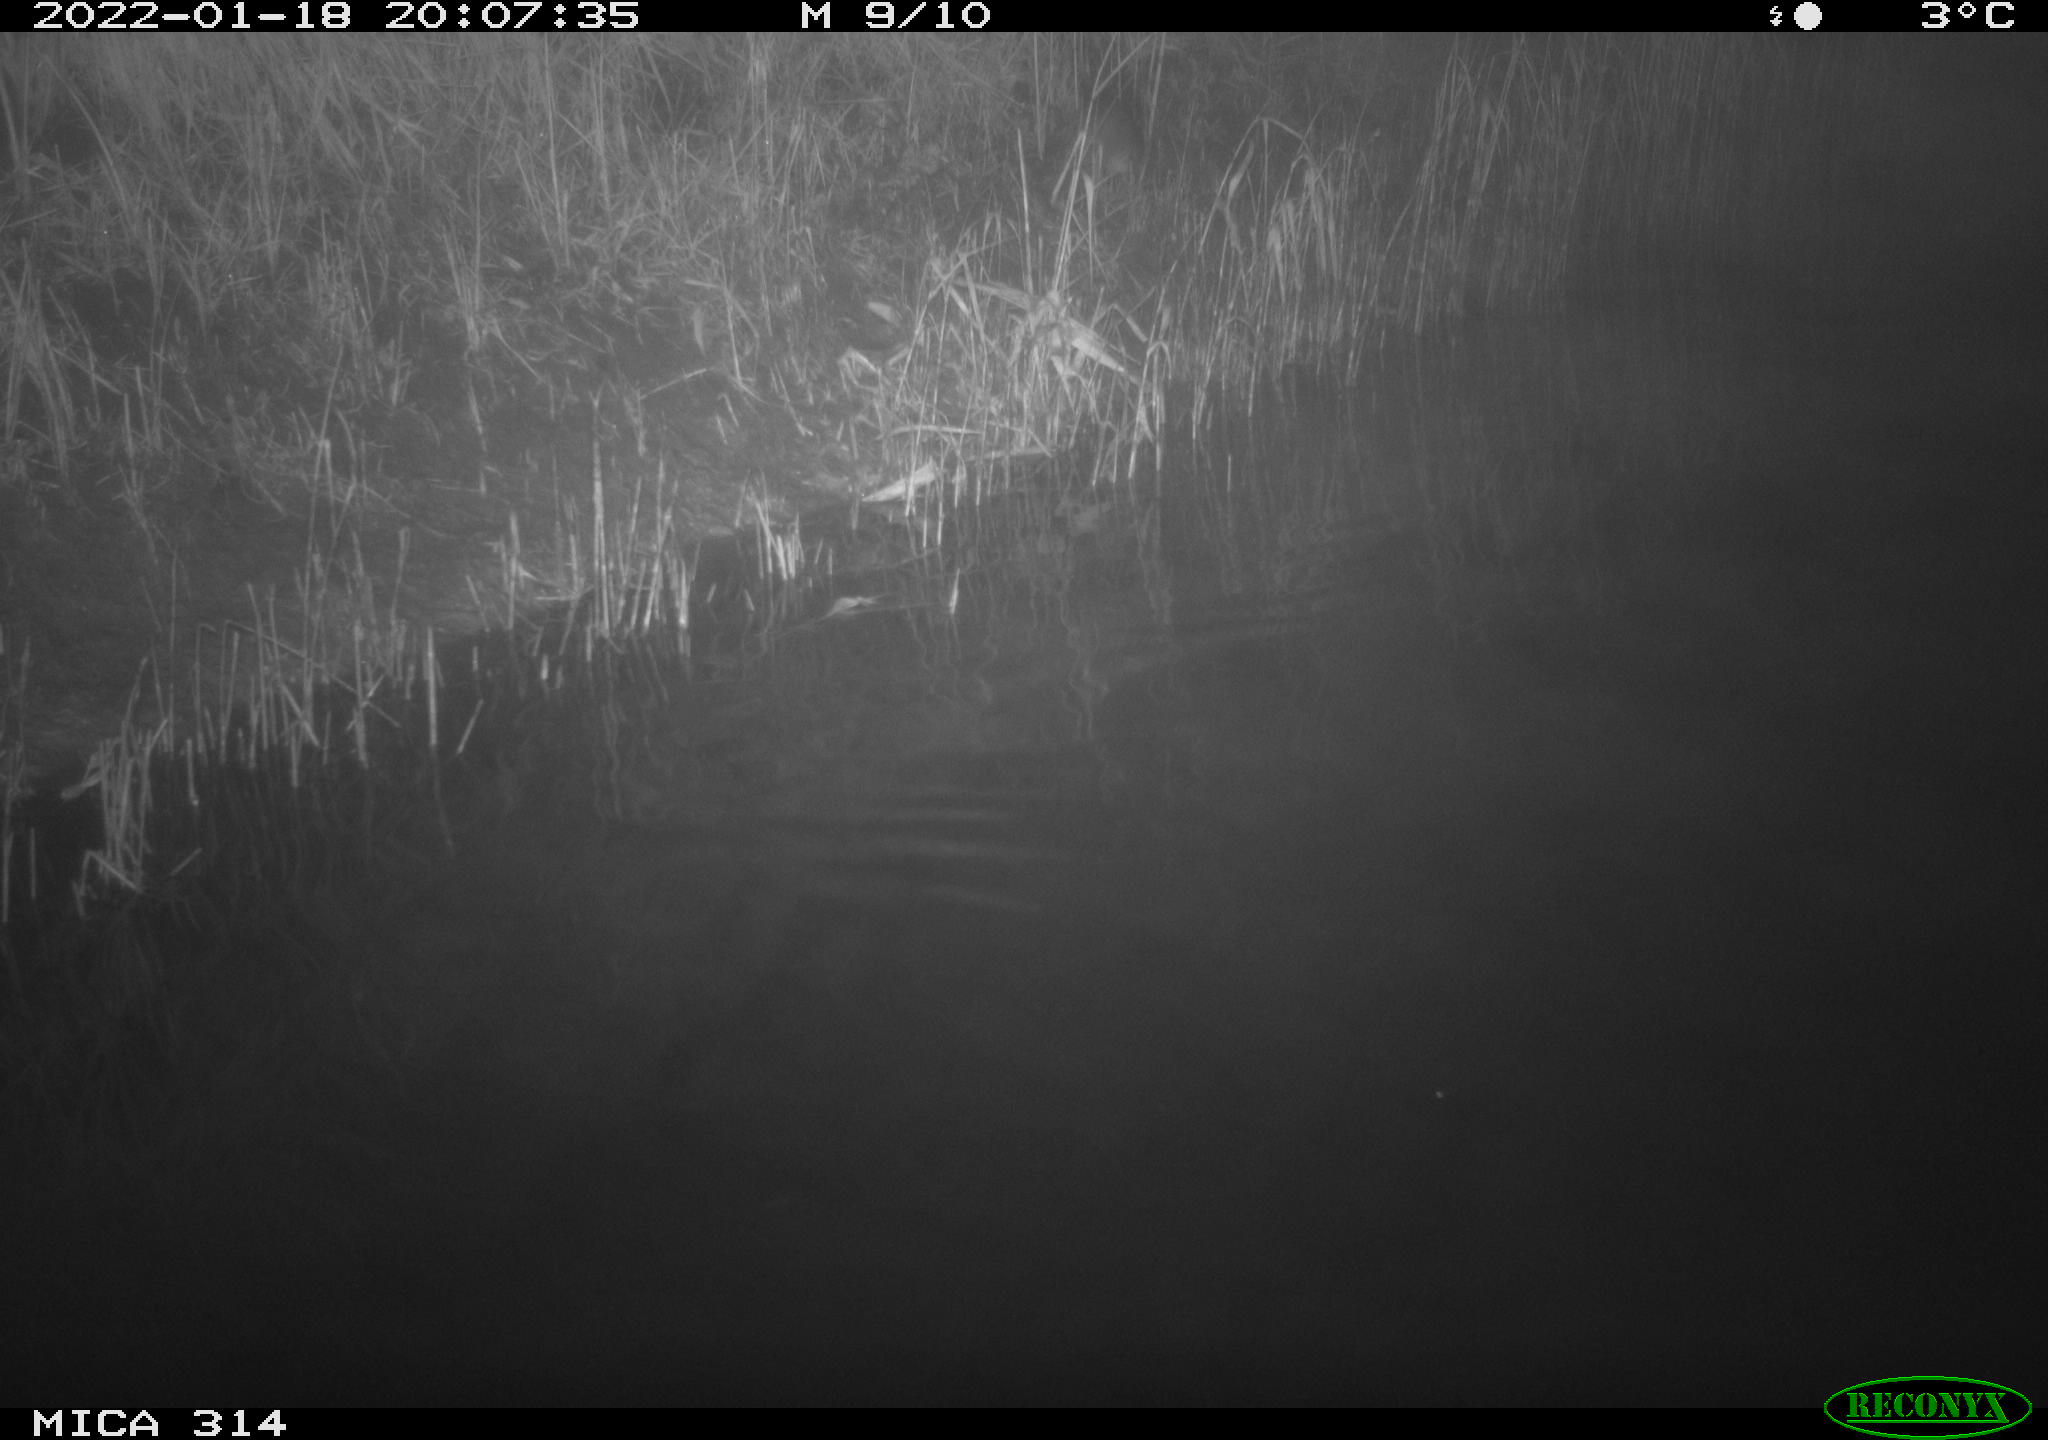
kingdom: Animalia
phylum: Chordata
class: Mammalia
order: Rodentia
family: Muridae
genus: Rattus
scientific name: Rattus norvegicus
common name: Brown rat
